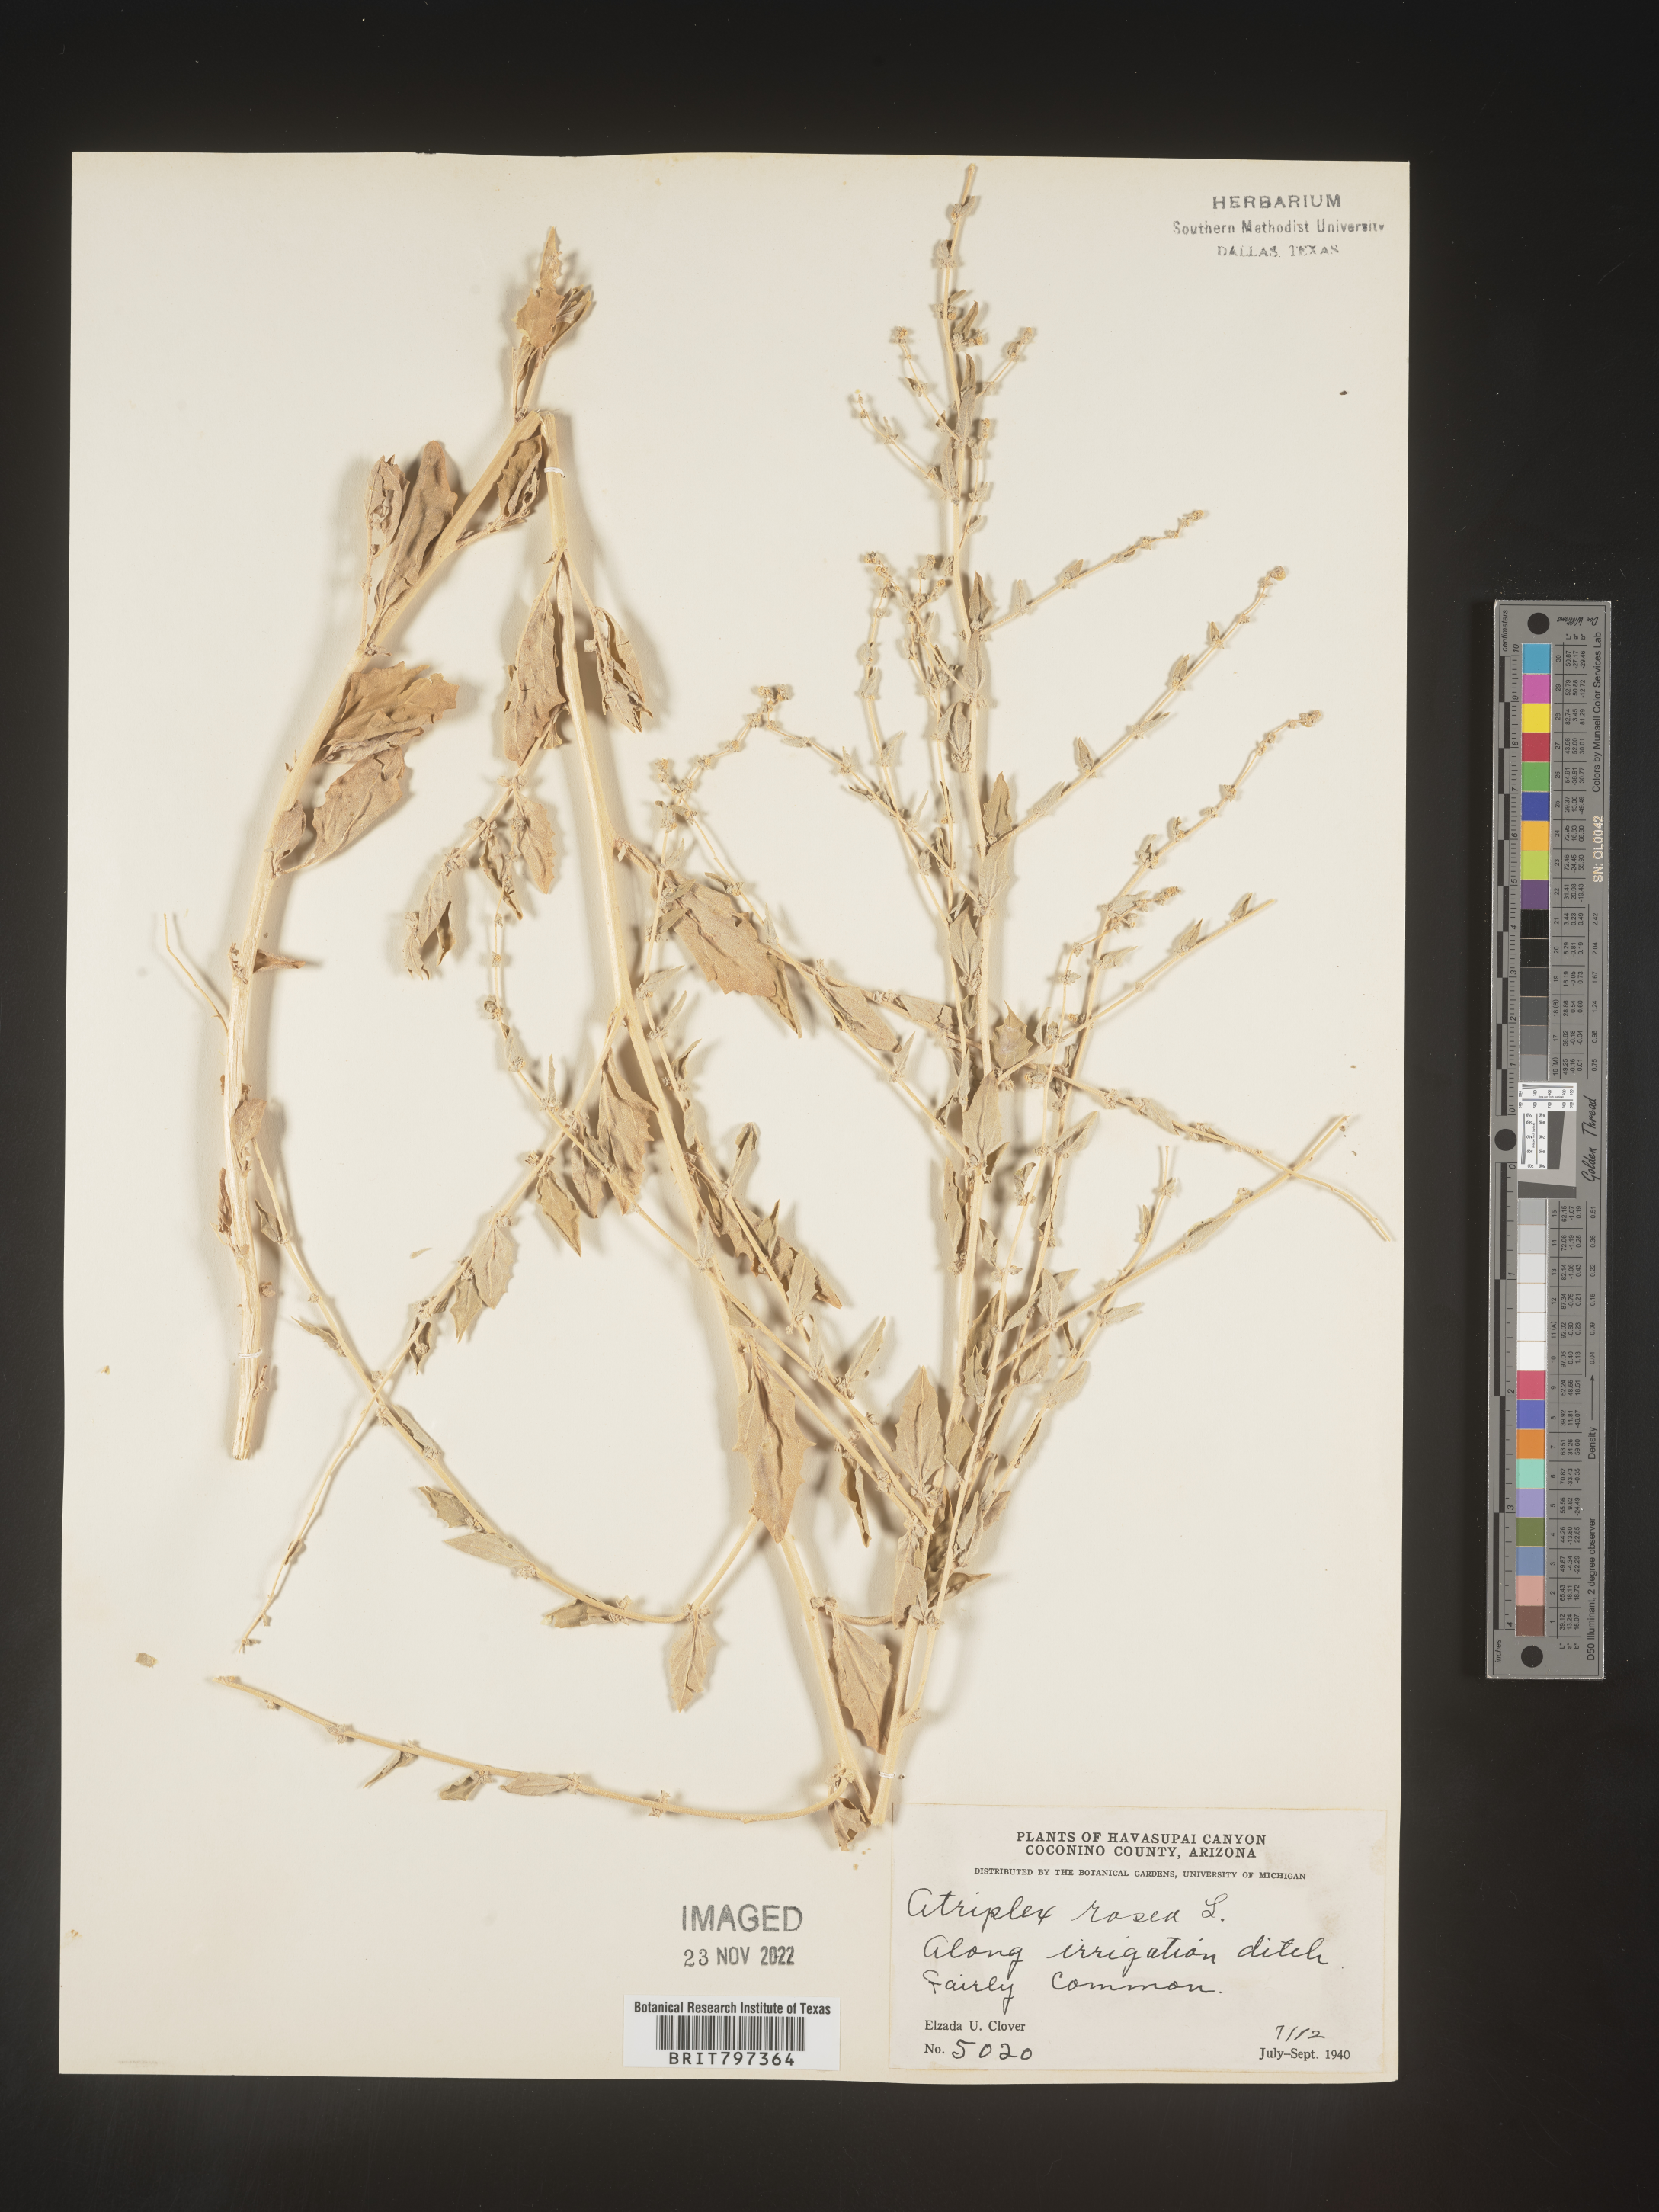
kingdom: Plantae
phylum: Tracheophyta
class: Magnoliopsida
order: Caryophyllales
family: Amaranthaceae
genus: Atriplex
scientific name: Atriplex rosea
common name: Tumbling saltweed
